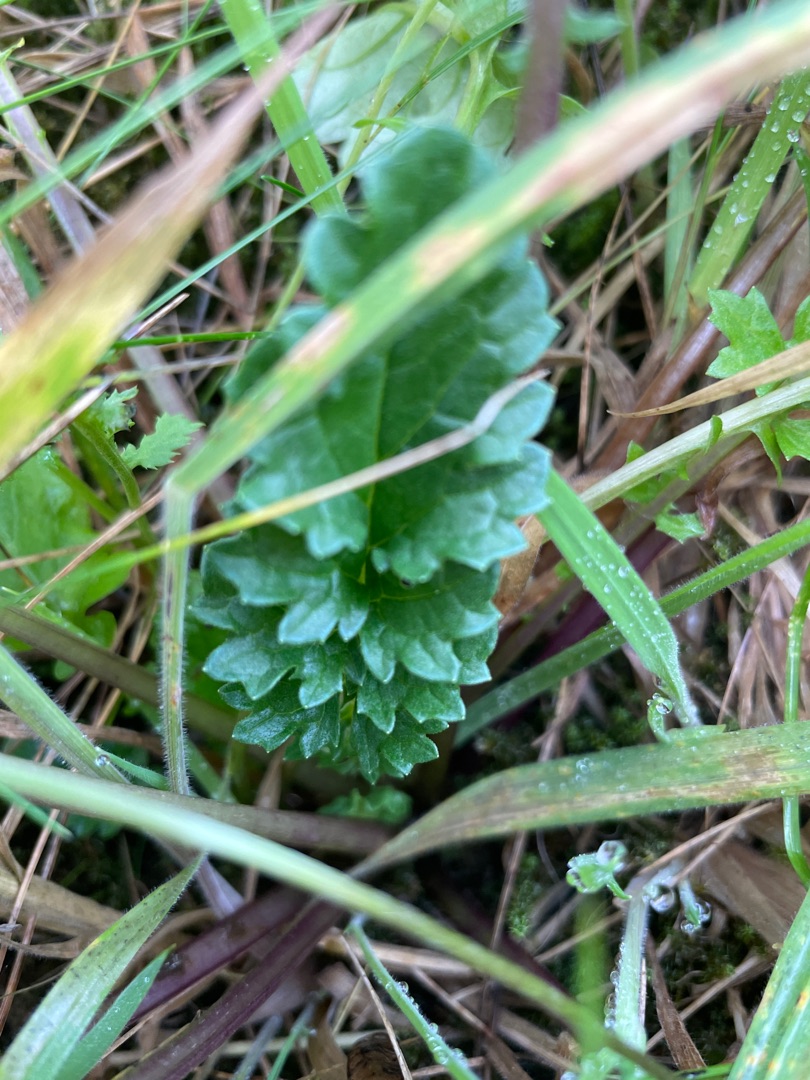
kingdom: Plantae
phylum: Tracheophyta
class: Magnoliopsida
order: Asterales
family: Asteraceae
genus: Jacobaea
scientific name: Jacobaea vulgaris
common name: Eng-brandbæger
